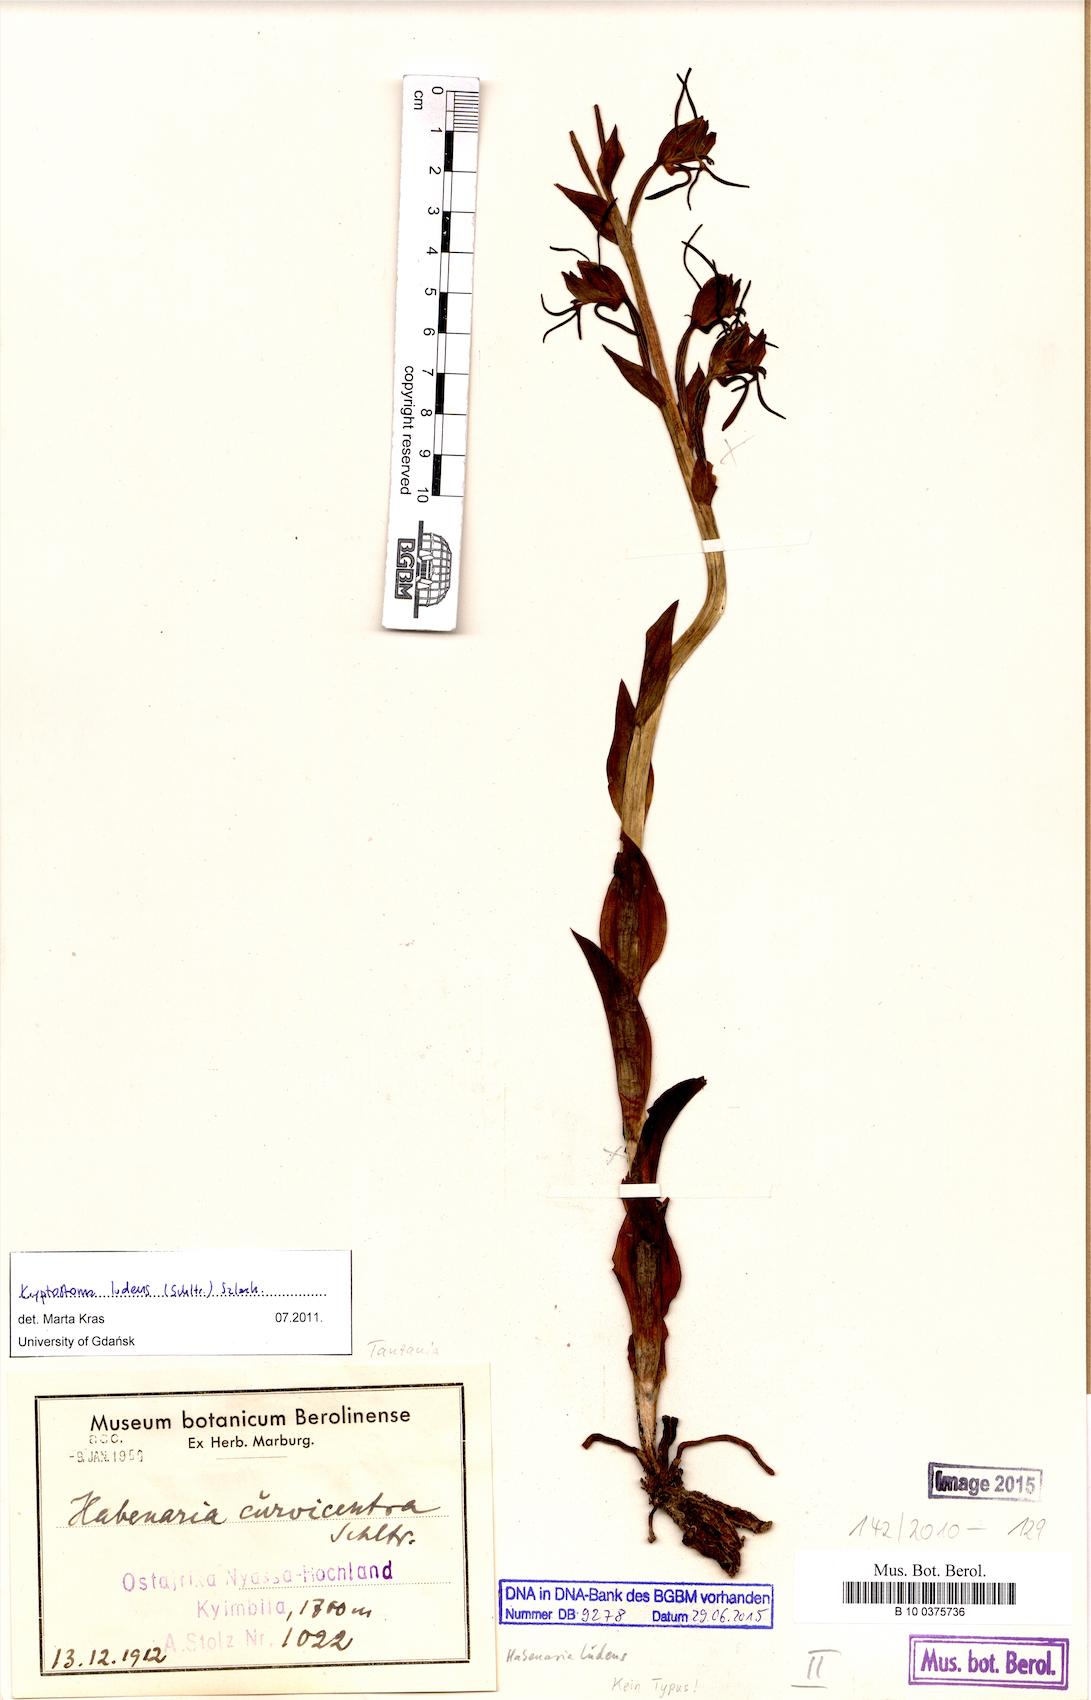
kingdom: Plantae
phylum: Tracheophyta
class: Liliopsida
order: Asparagales
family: Orchidaceae
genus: Habenaria
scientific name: Habenaria tentaculigera
